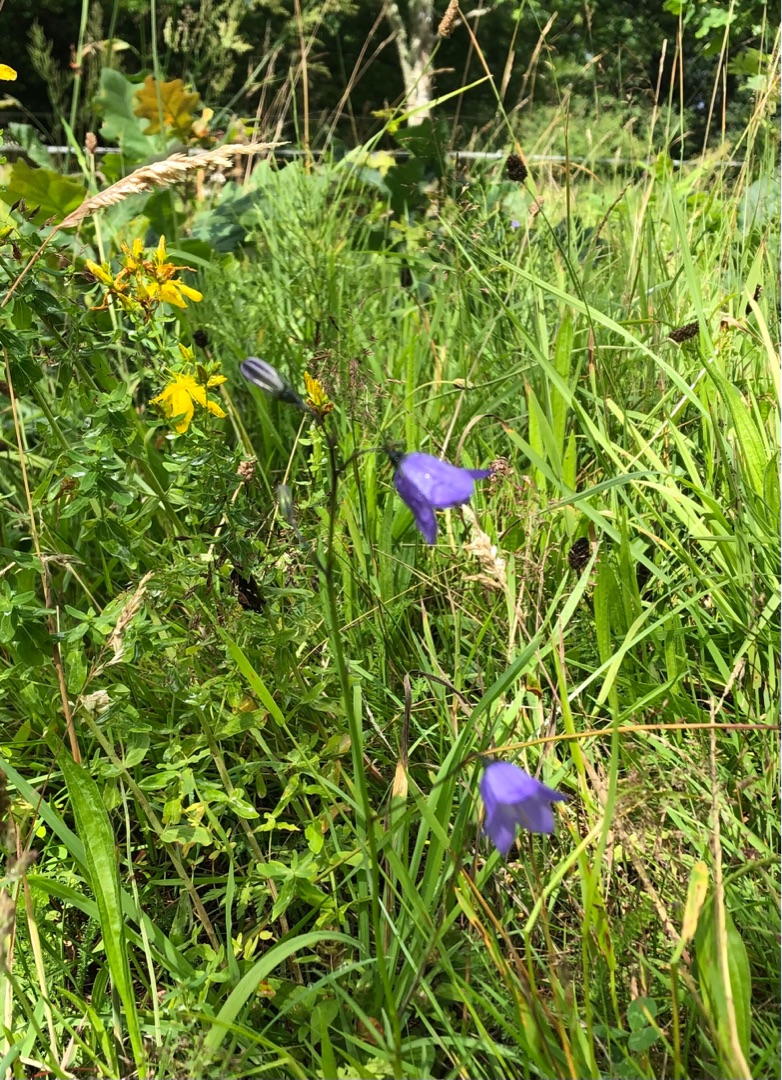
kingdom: Plantae
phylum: Tracheophyta
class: Magnoliopsida
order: Asterales
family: Campanulaceae
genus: Campanula
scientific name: Campanula rotundifolia
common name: Liden klokke
